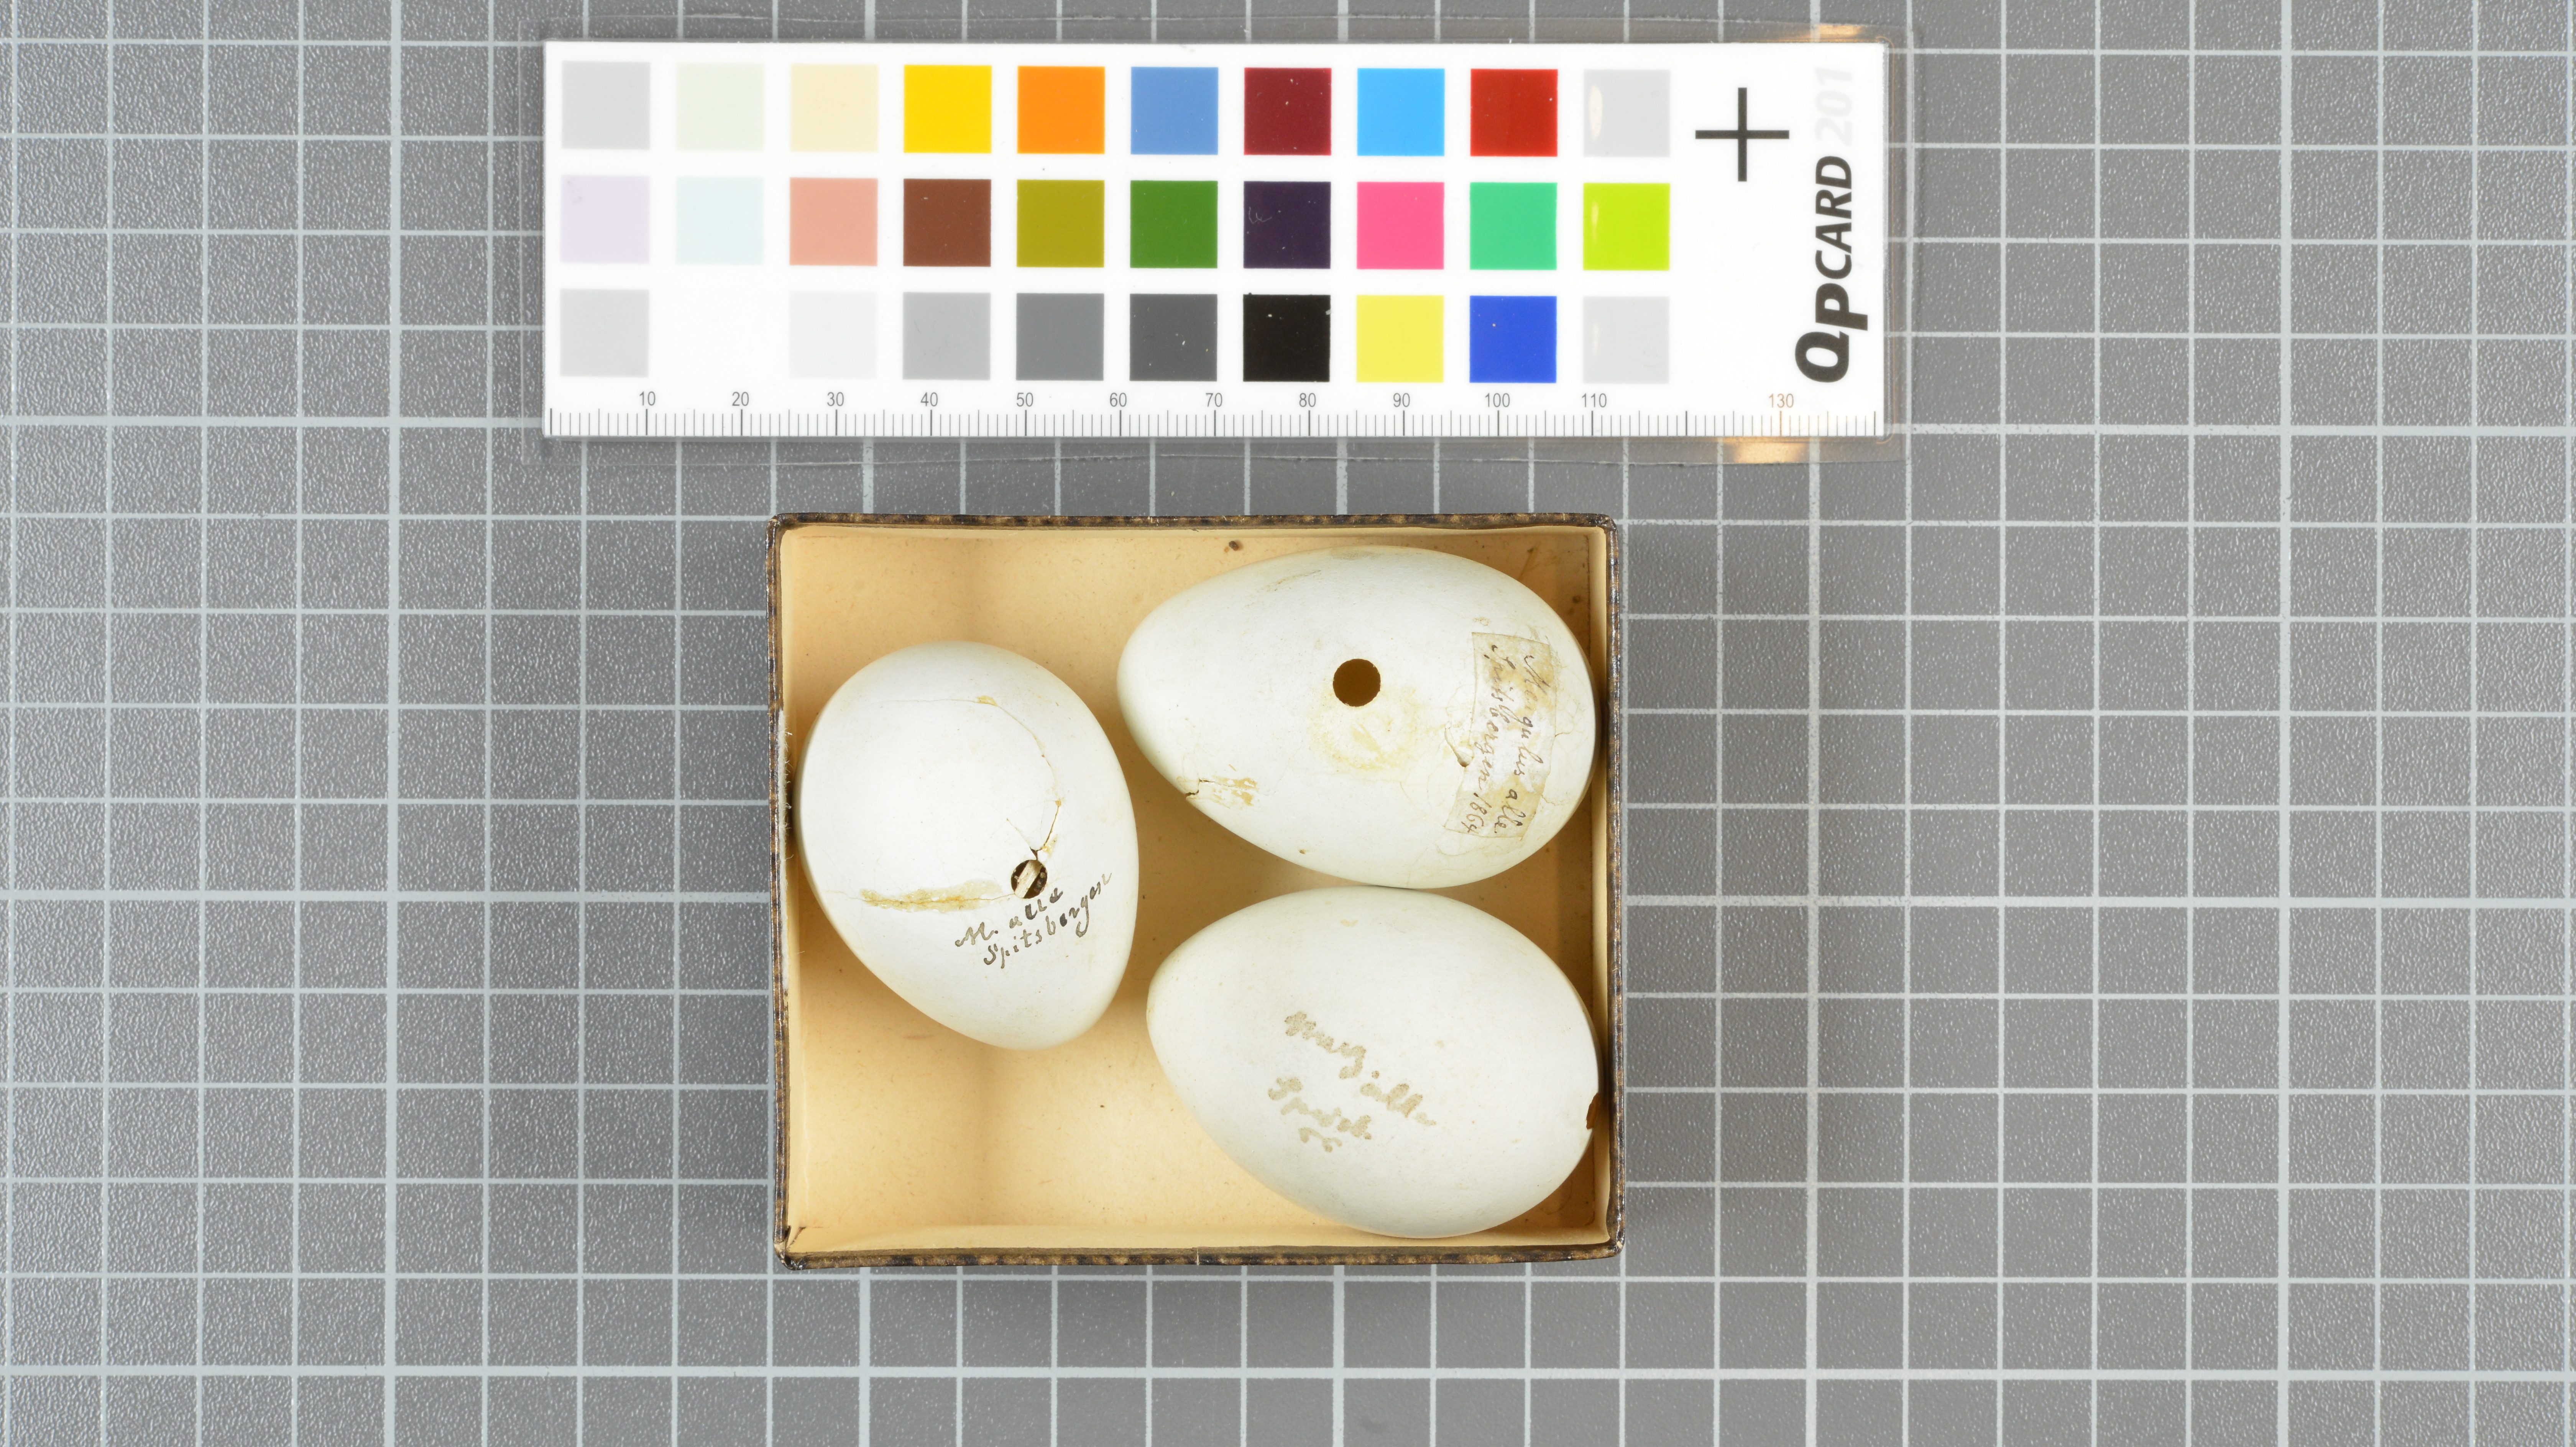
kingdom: Animalia
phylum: Chordata
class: Aves
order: Charadriiformes
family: Alcidae
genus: Alle
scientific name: Alle alle
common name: Little auk
